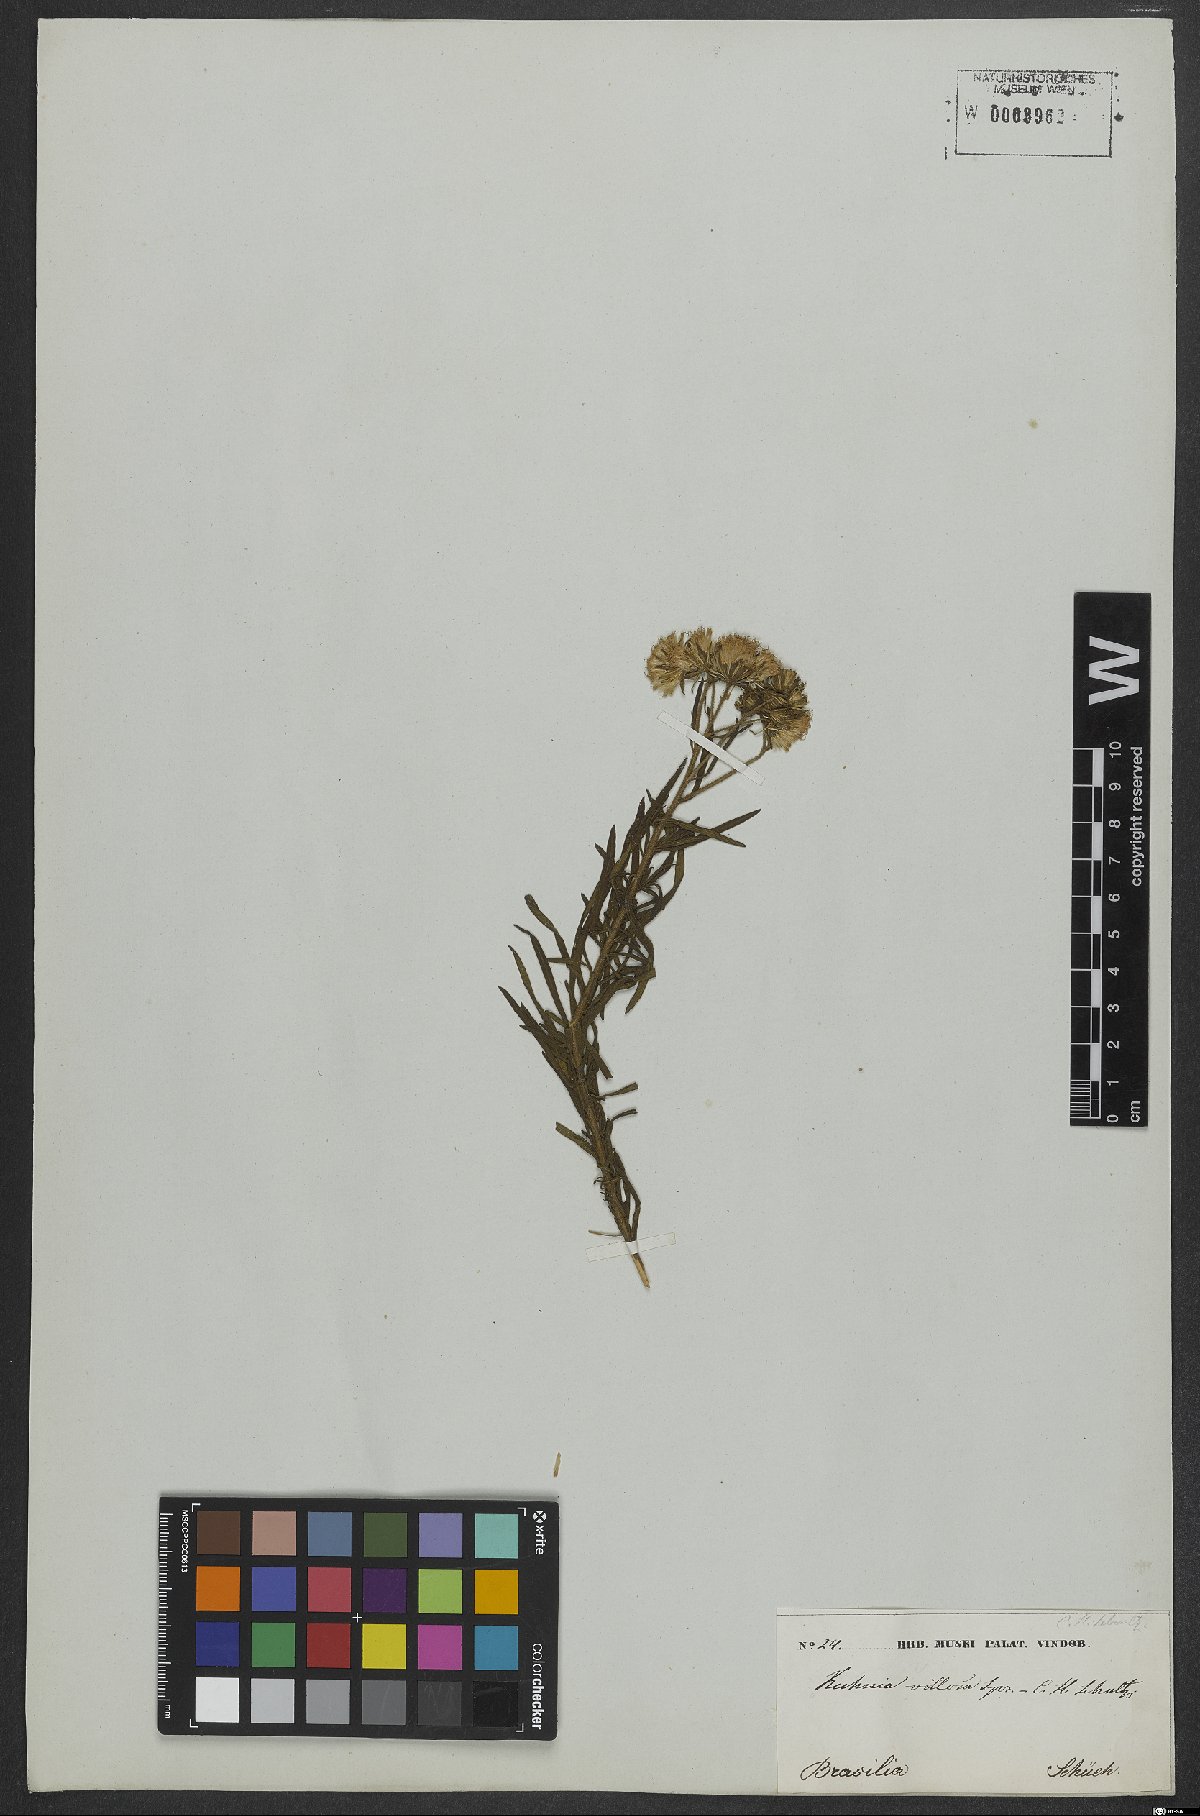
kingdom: Plantae
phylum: Tracheophyta
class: Magnoliopsida
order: Asterales
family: Asteraceae
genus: Trichogonia
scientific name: Trichogonia villosa
